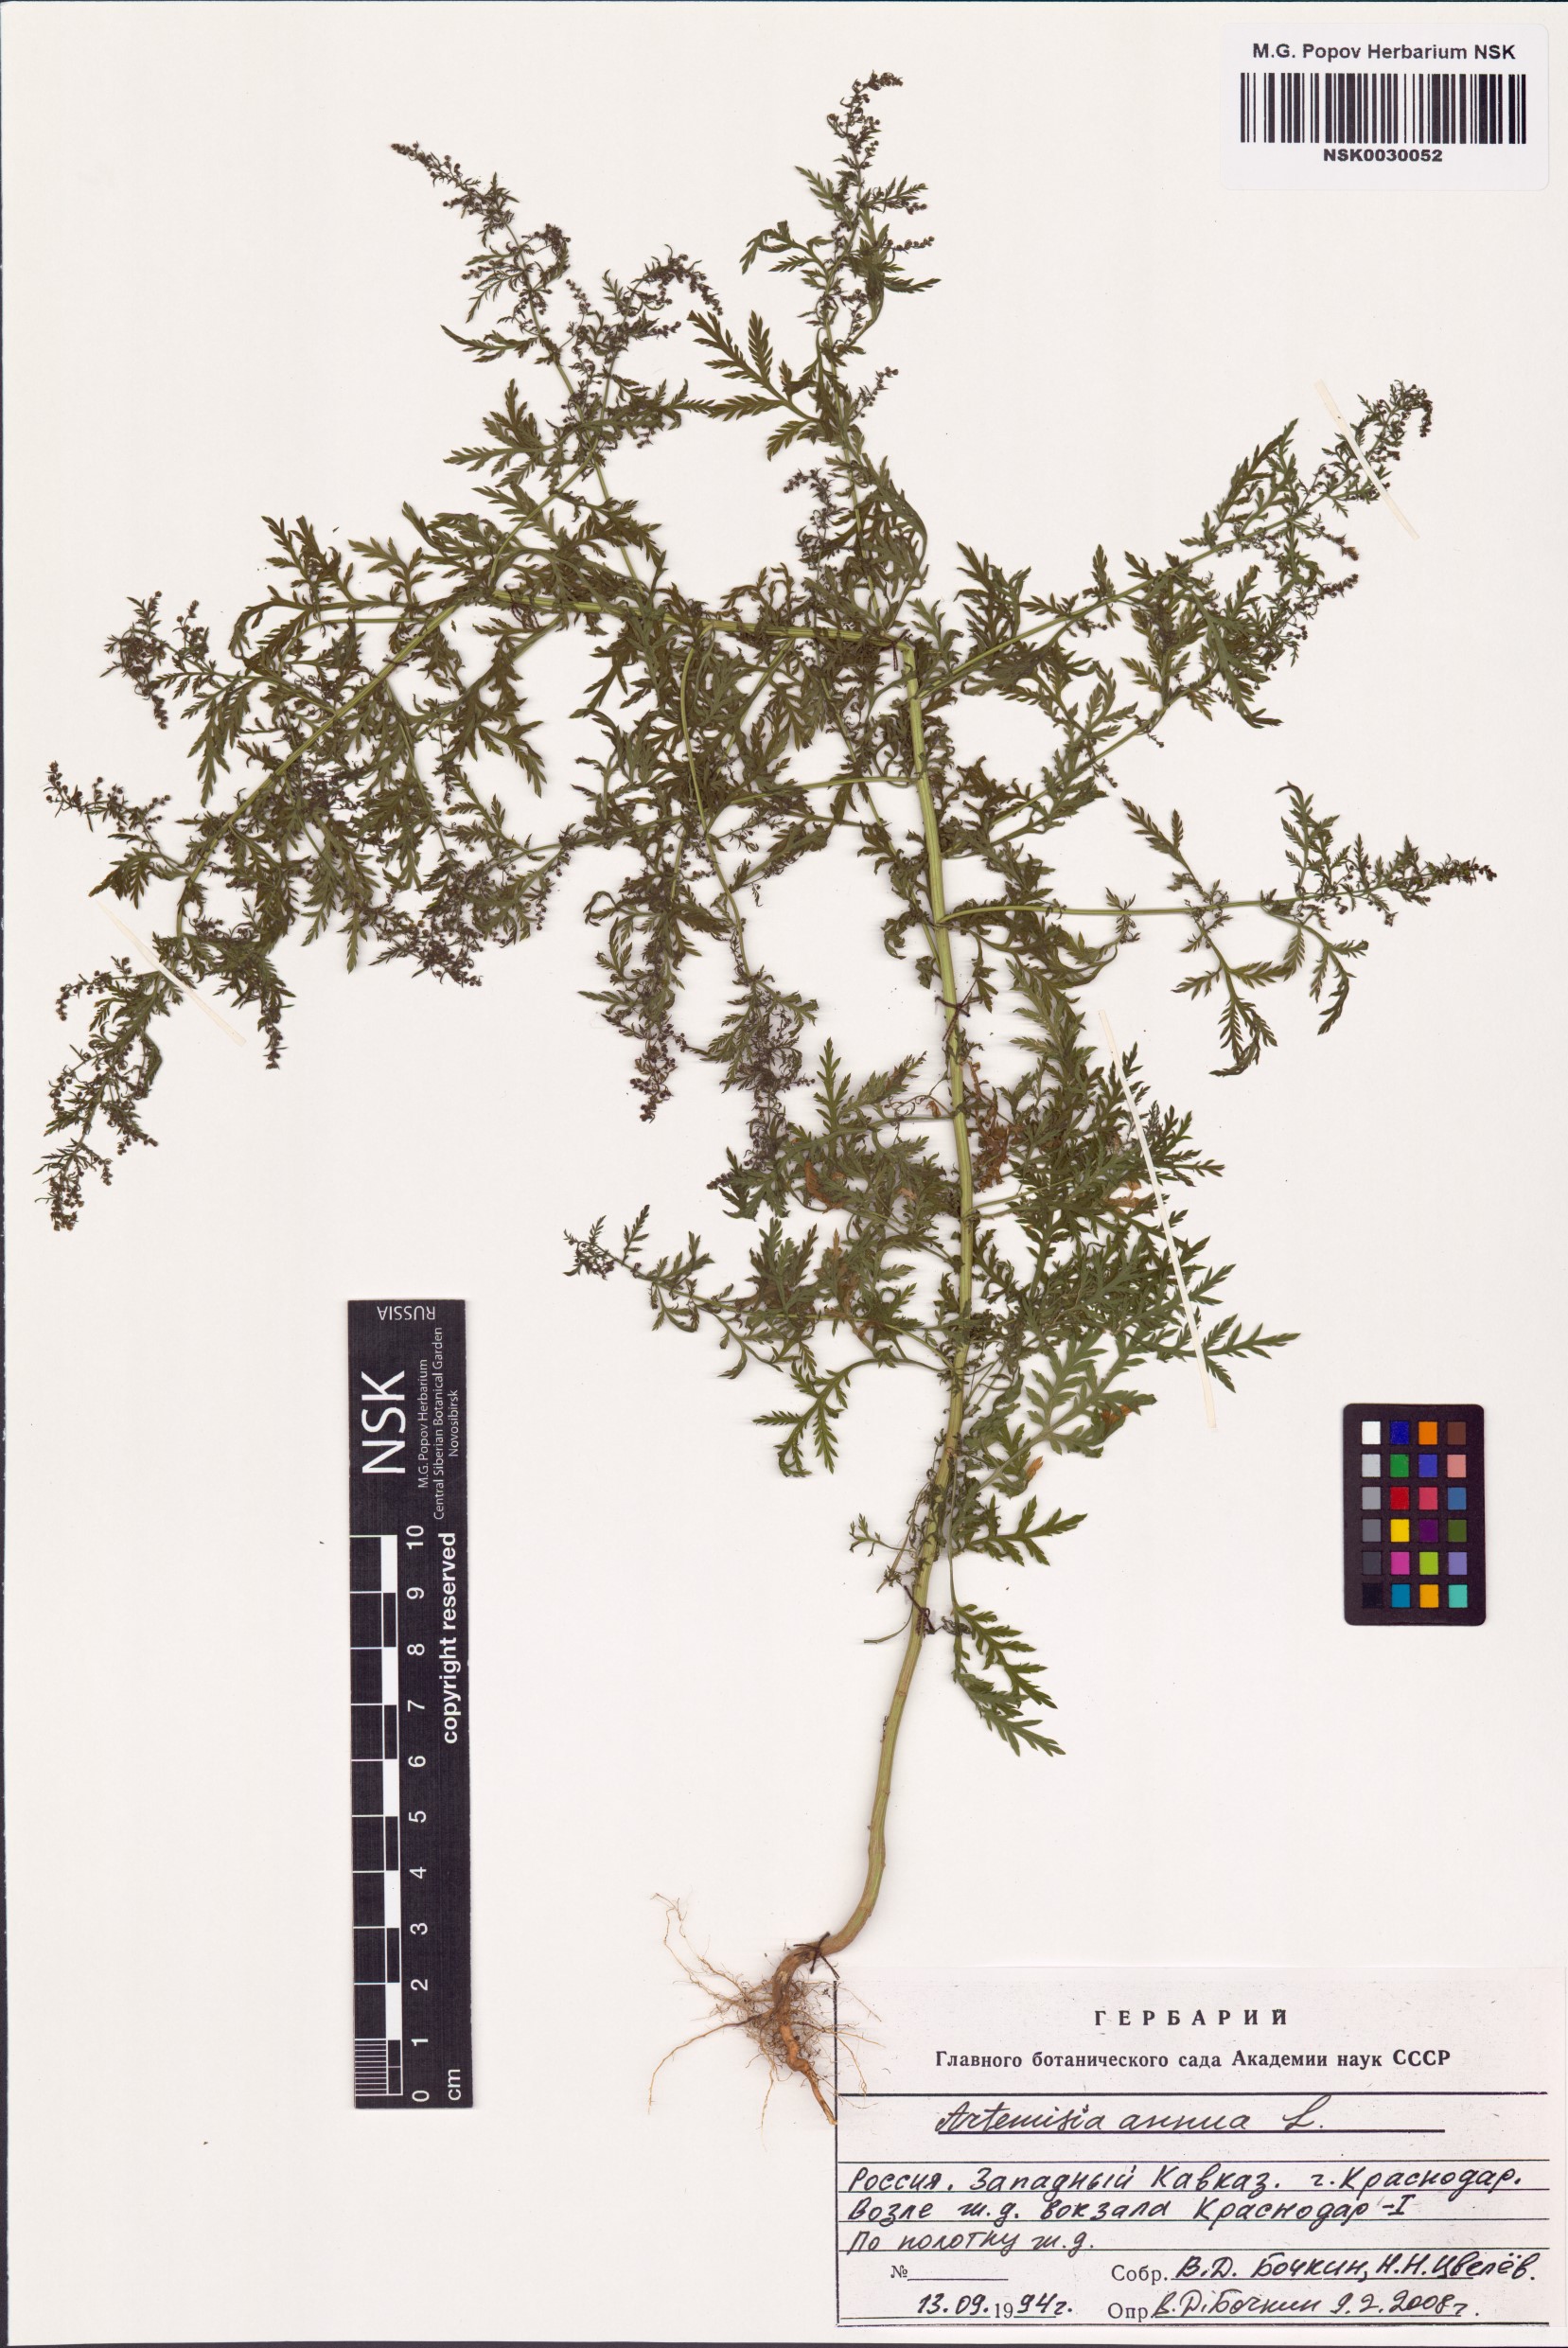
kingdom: Plantae
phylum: Tracheophyta
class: Magnoliopsida
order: Asterales
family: Asteraceae
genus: Artemisia
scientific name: Artemisia annua
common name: Sweet sagewort
